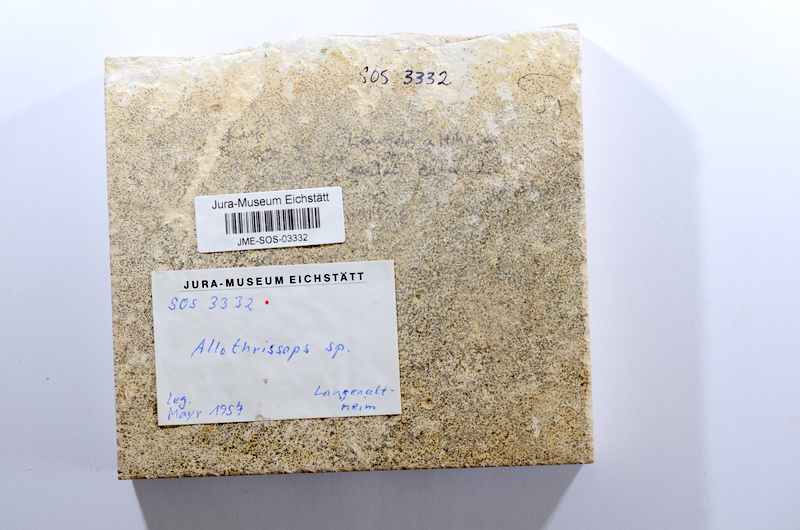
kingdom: Animalia
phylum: Chordata
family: Allothrissopidae
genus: Allothrissops
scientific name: Allothrissops
